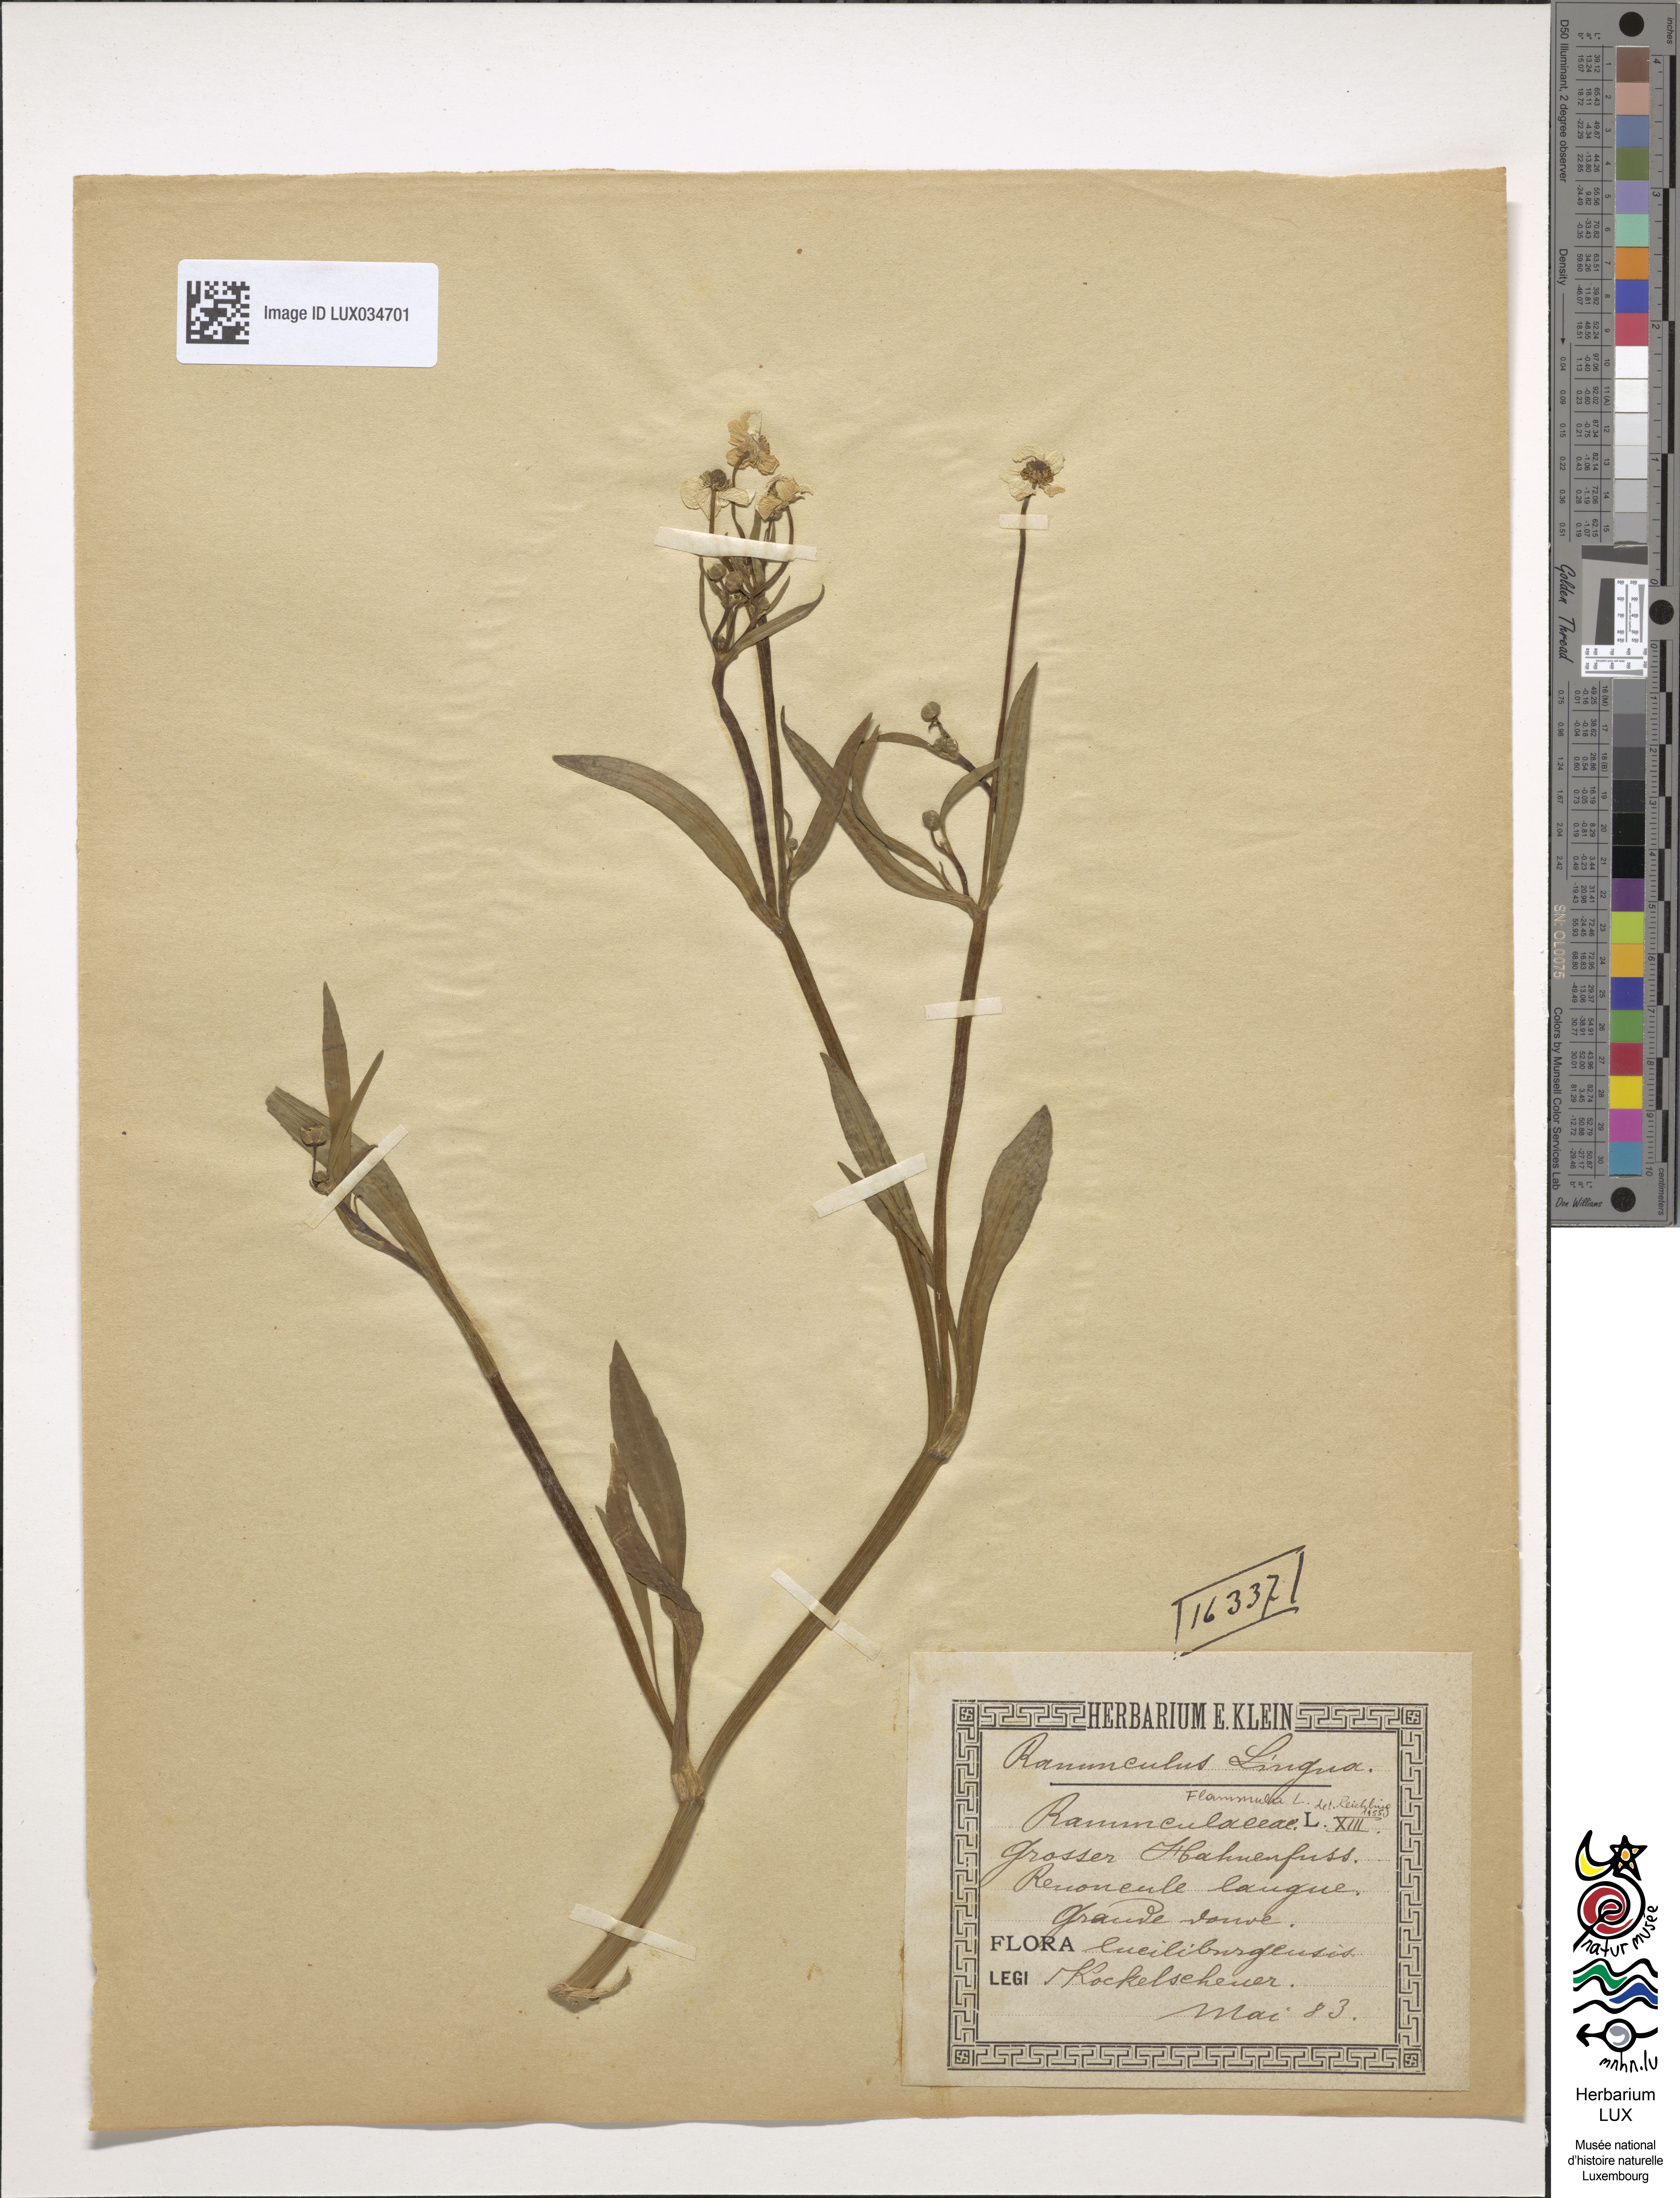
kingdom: Plantae
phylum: Tracheophyta
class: Magnoliopsida
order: Ranunculales
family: Ranunculaceae
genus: Ranunculus
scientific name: Ranunculus lingua
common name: Greater spearwort
